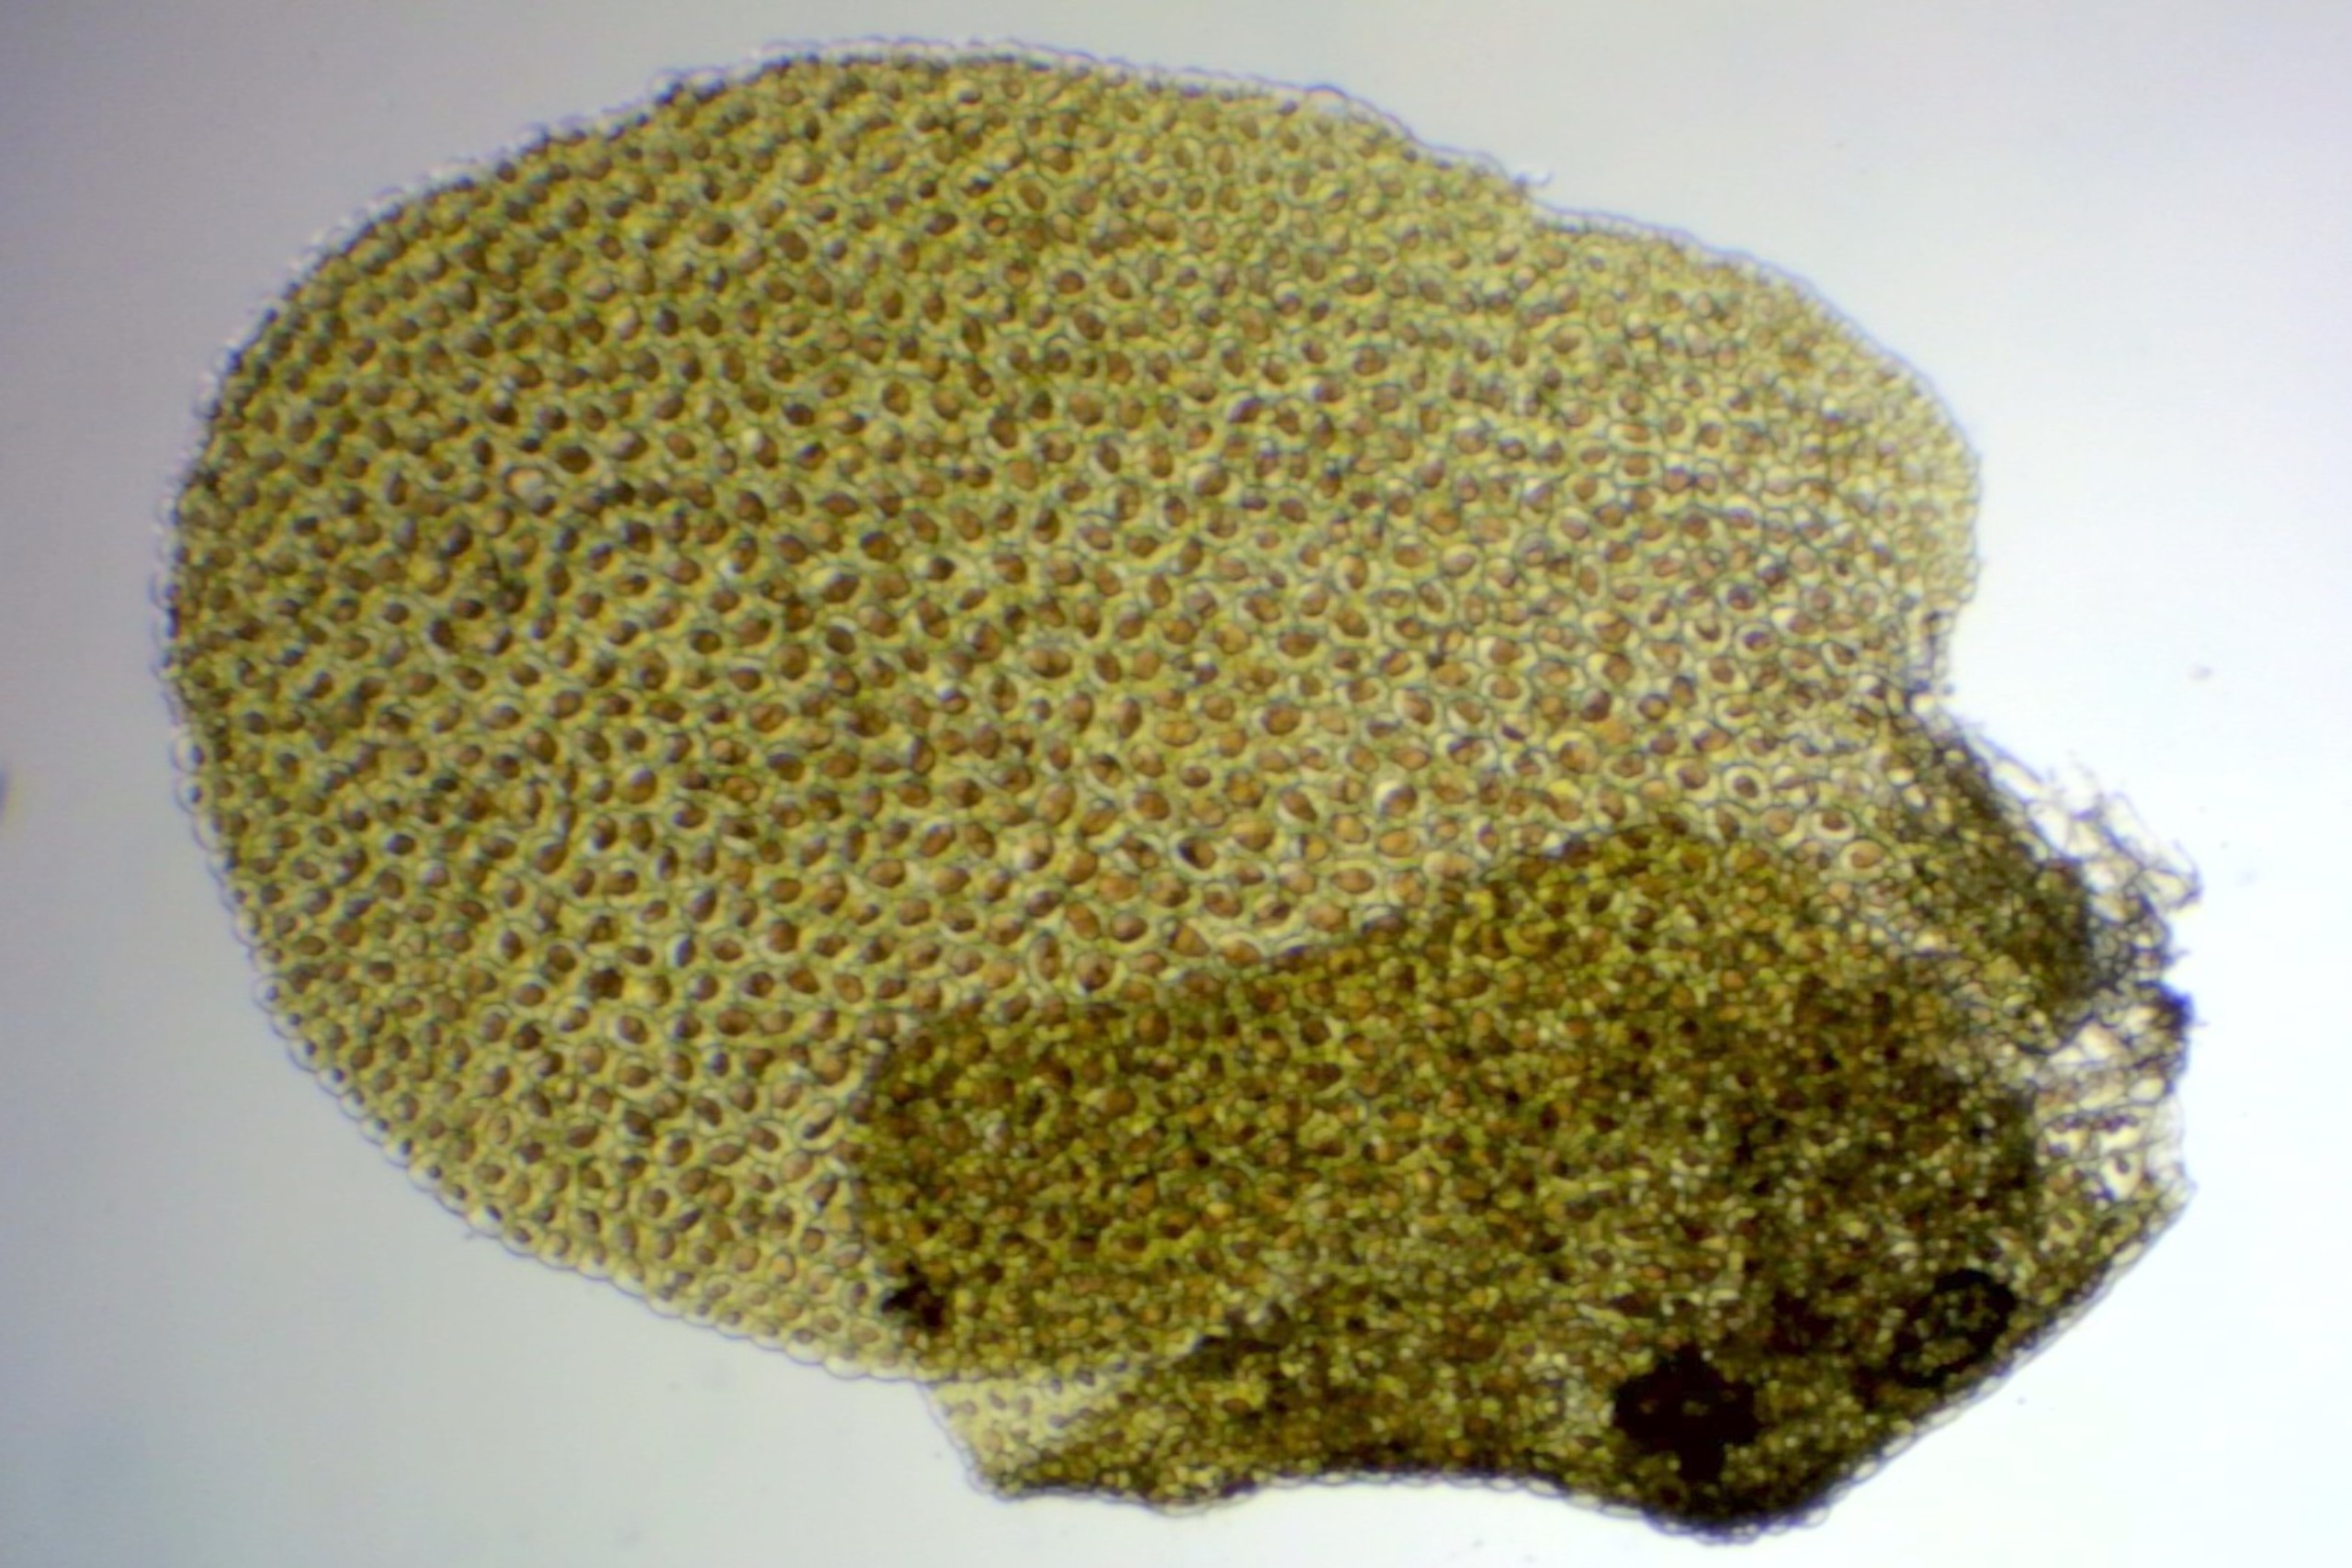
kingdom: Plantae
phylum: Marchantiophyta
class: Jungermanniopsida
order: Porellales
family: Radulaceae
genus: Radula
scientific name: Radula complanata
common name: Almindelig spartelmos
